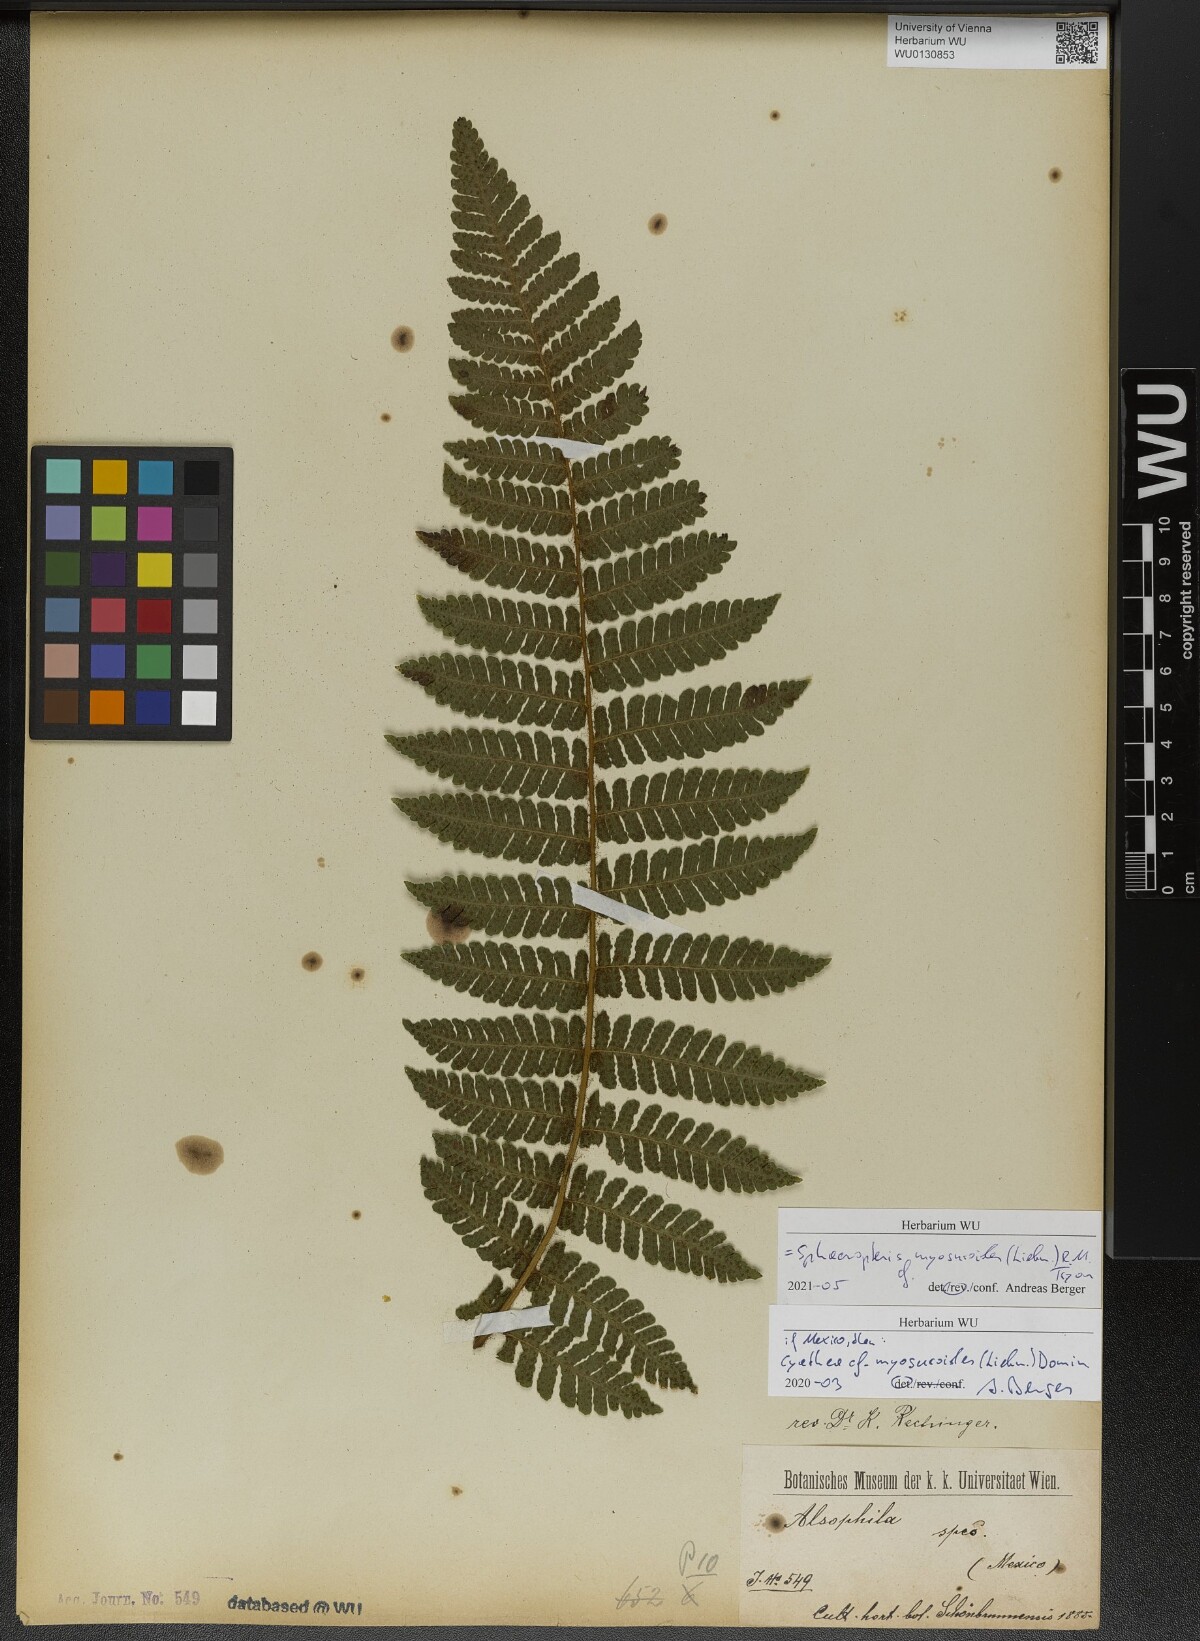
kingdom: Plantae
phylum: Tracheophyta
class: Polypodiopsida
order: Cyatheales
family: Cyatheaceae
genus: Sphaeropteris
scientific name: Sphaeropteris myosuroides
